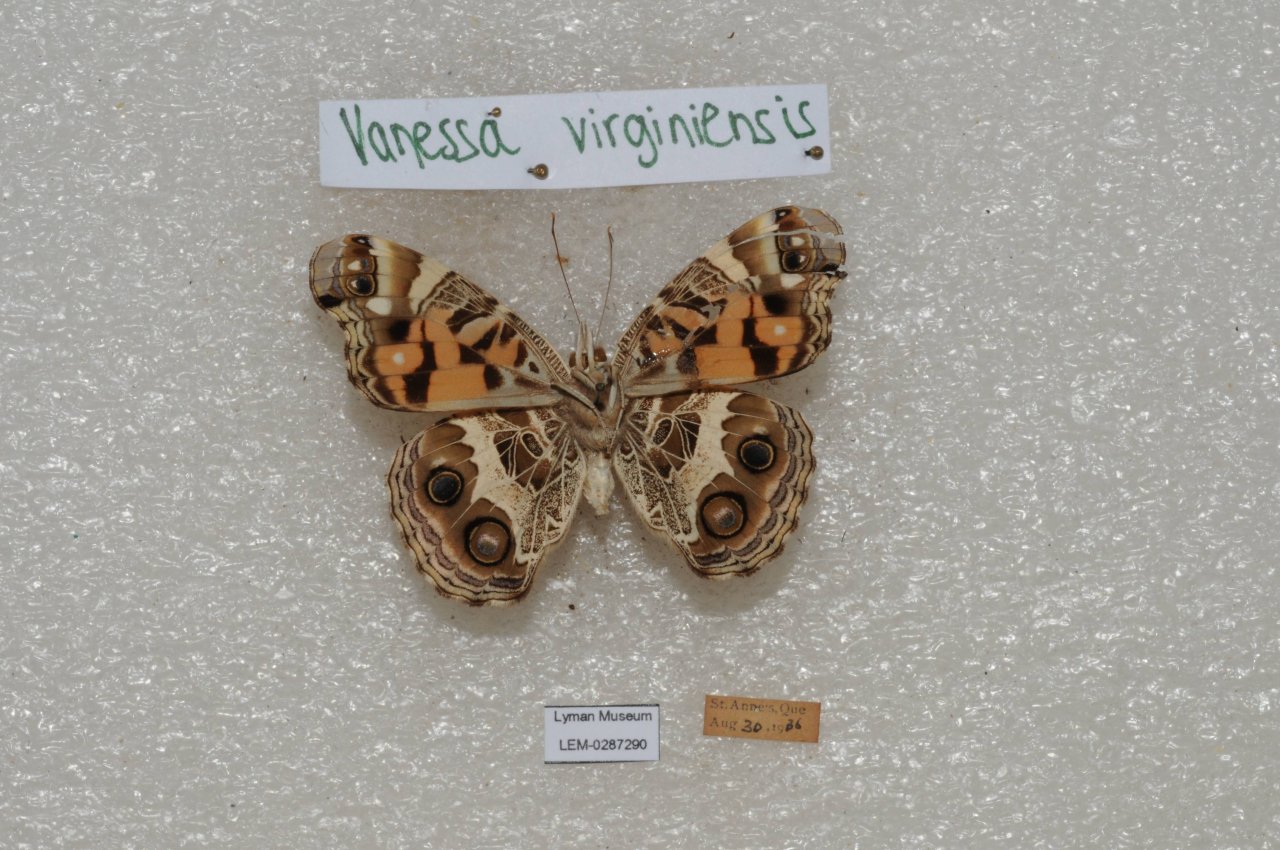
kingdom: Animalia
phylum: Arthropoda
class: Insecta
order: Lepidoptera
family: Nymphalidae
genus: Vanessa
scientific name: Vanessa virginiensis
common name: American Lady
